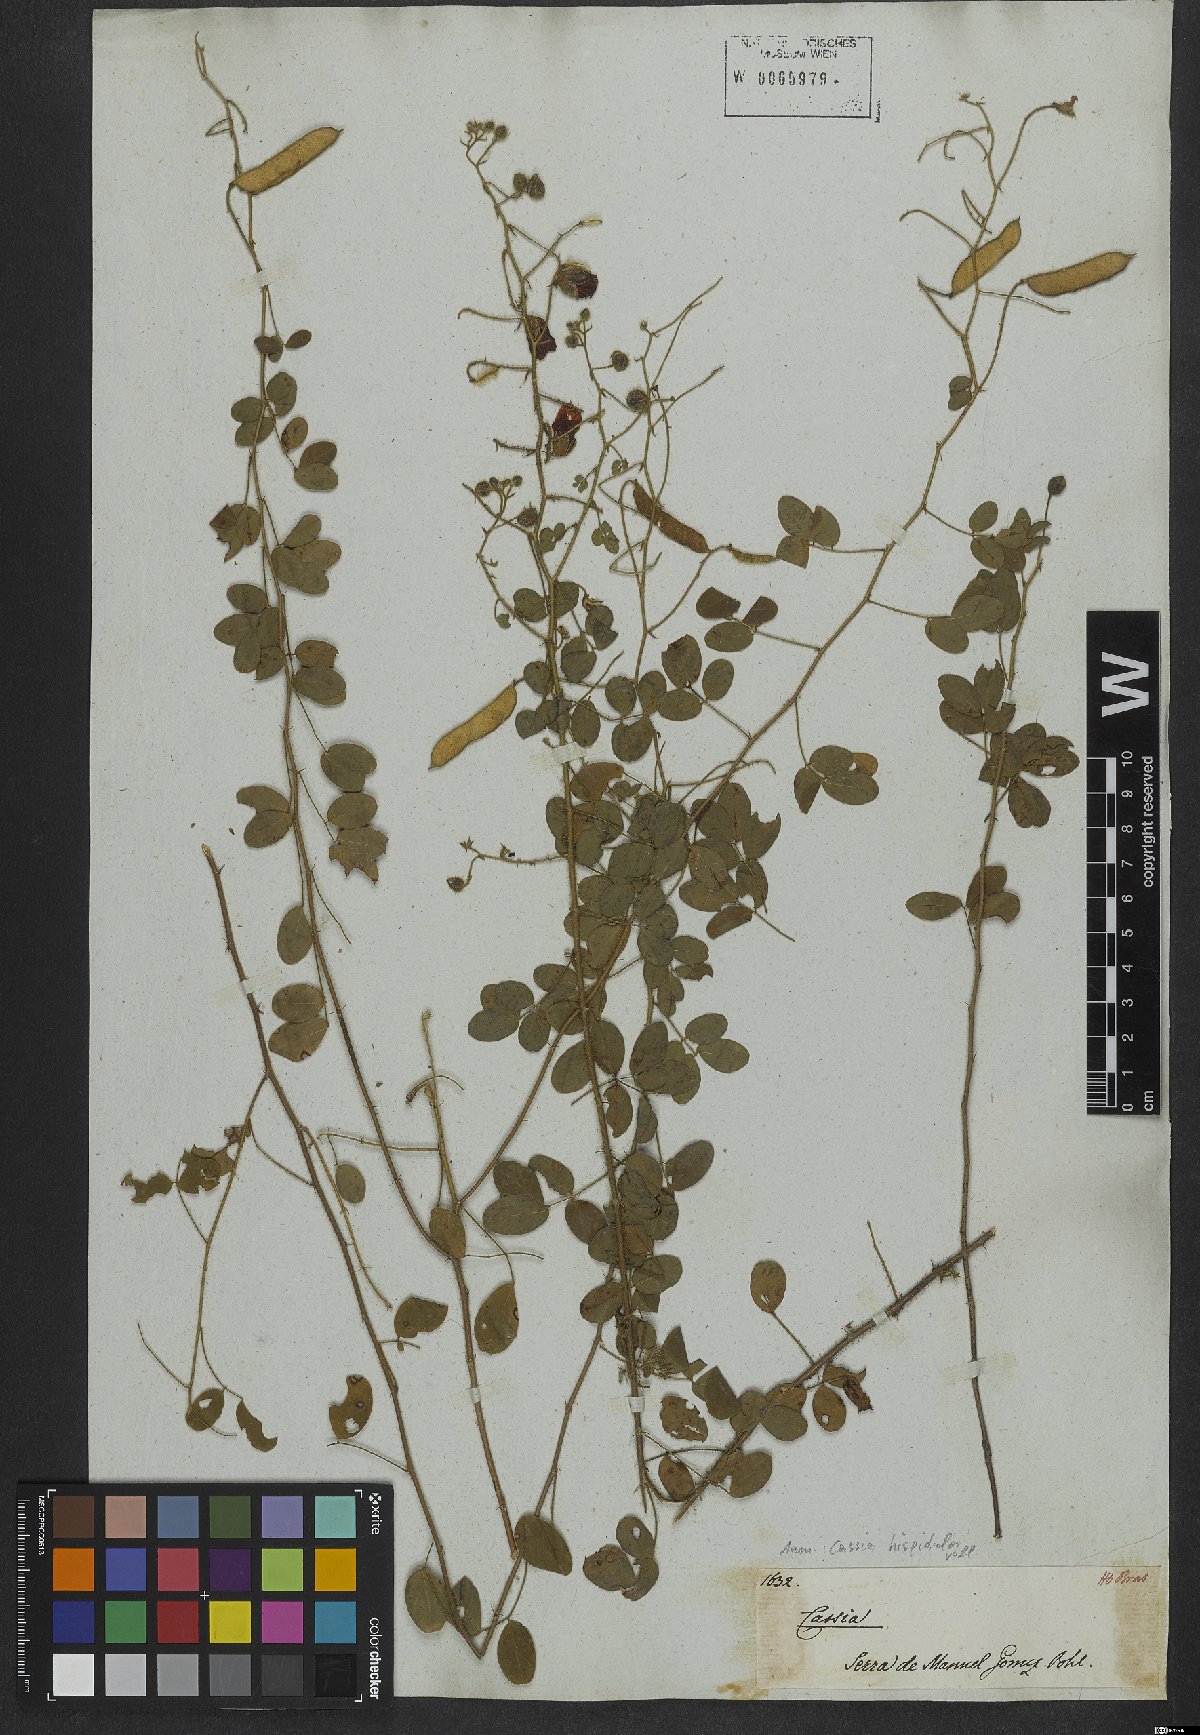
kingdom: Plantae
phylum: Tracheophyta
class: Magnoliopsida
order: Fabales
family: Fabaceae
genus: Chamaecrista
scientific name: Chamaecrista hispidula
